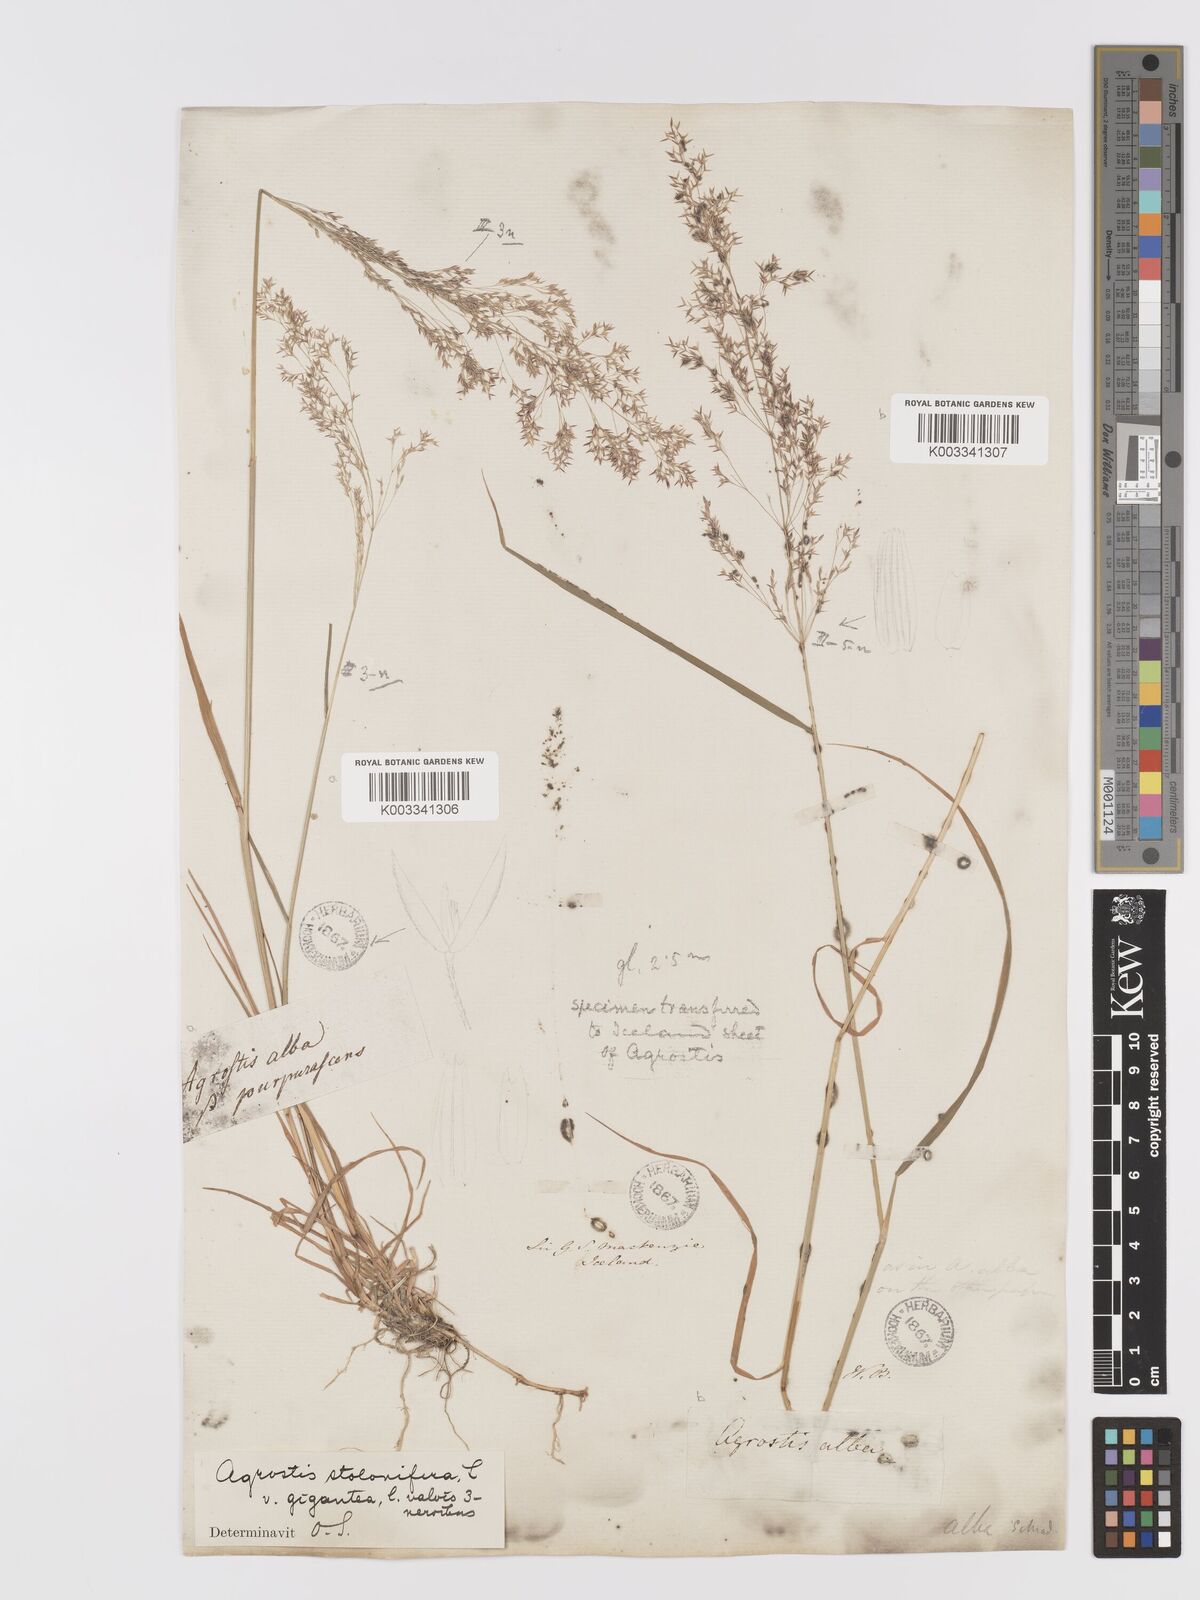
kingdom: Plantae
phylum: Tracheophyta
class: Liliopsida
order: Poales
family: Poaceae
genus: Agrostis
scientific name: Agrostis gigantea
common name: Black bent
